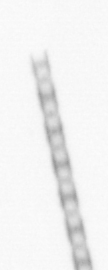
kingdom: Chromista
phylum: Ochrophyta
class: Bacillariophyceae
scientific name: Bacillariophyceae
